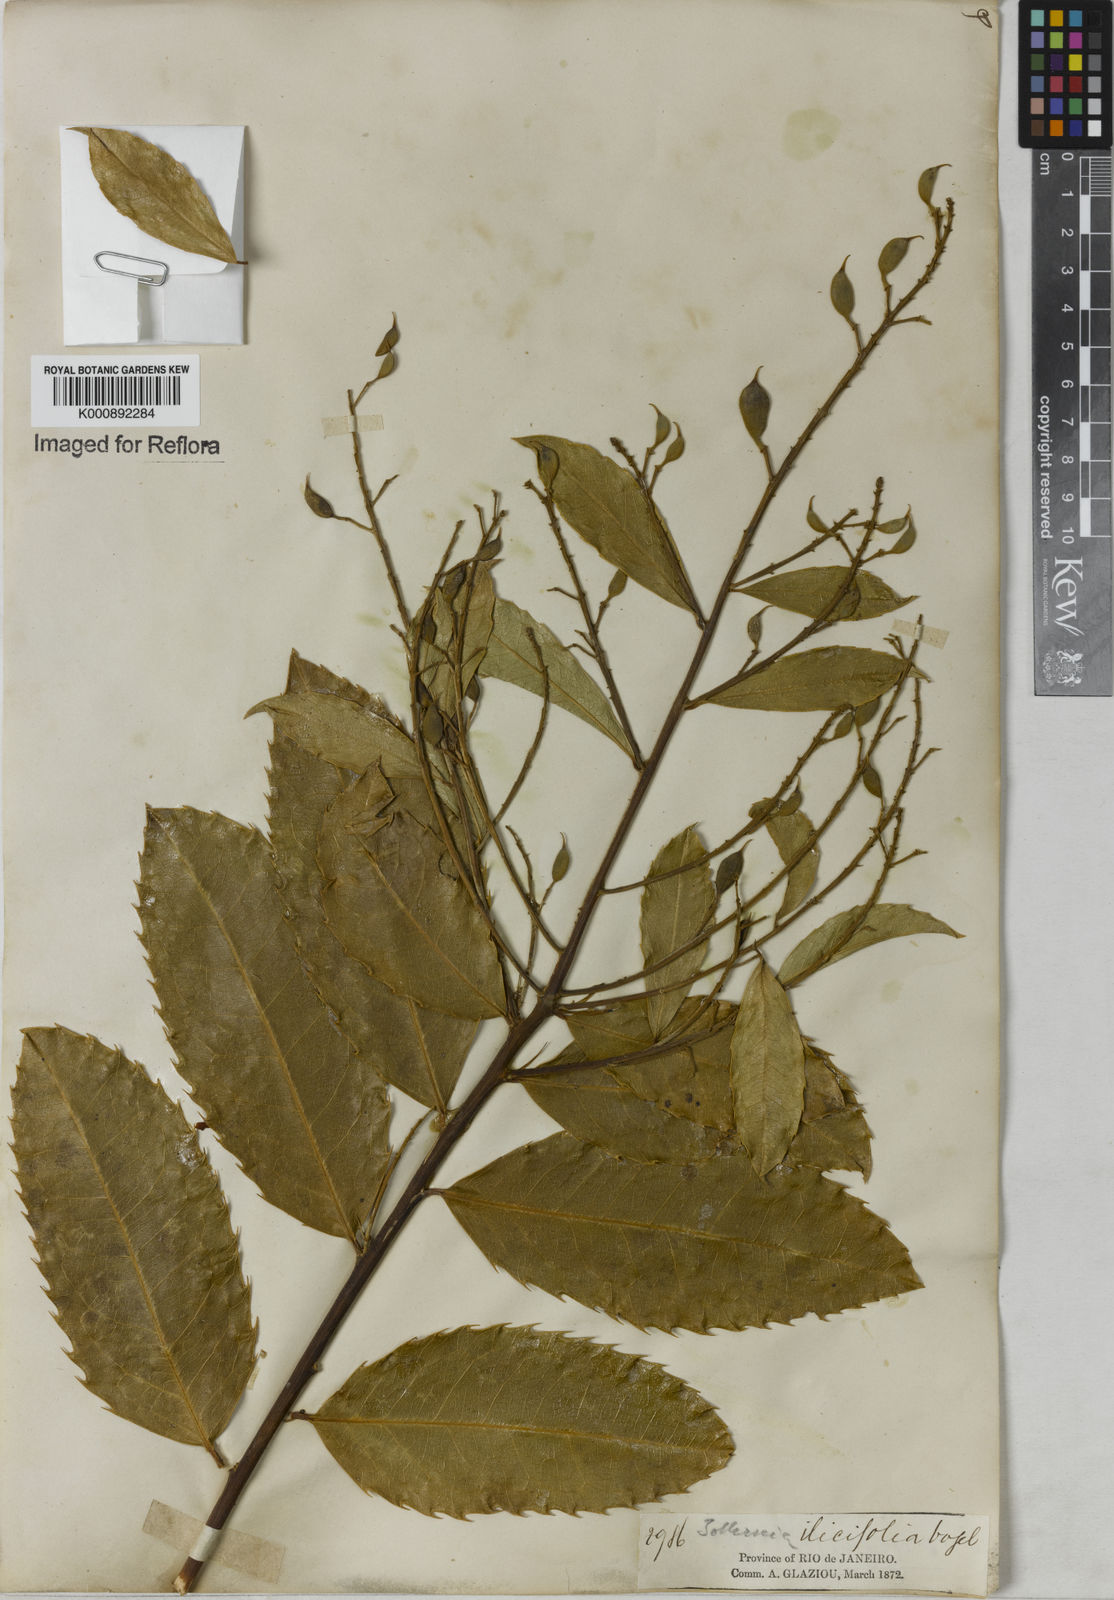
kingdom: Plantae
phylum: Tracheophyta
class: Magnoliopsida
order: Fabales
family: Fabaceae
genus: Zollernia
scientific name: Zollernia ilicifolia
